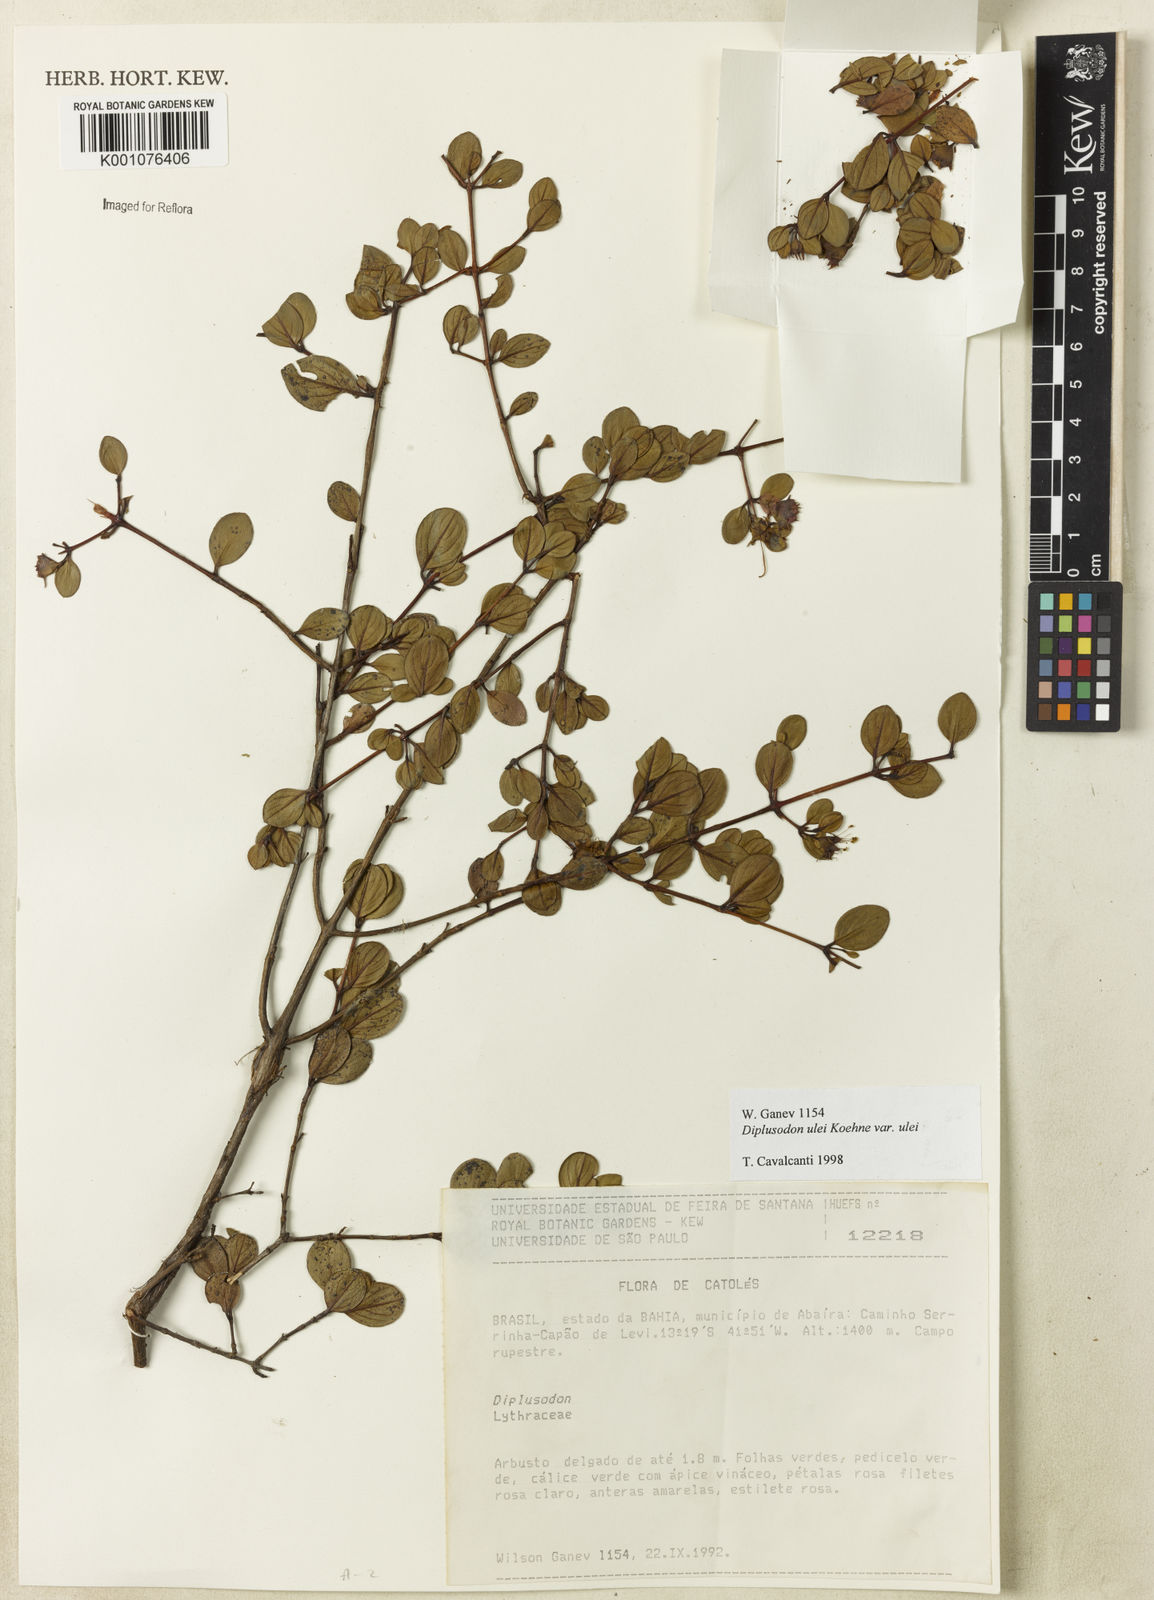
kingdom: Plantae
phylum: Tracheophyta
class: Magnoliopsida
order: Myrtales
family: Lythraceae
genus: Diplusodon
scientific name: Diplusodon ulei
